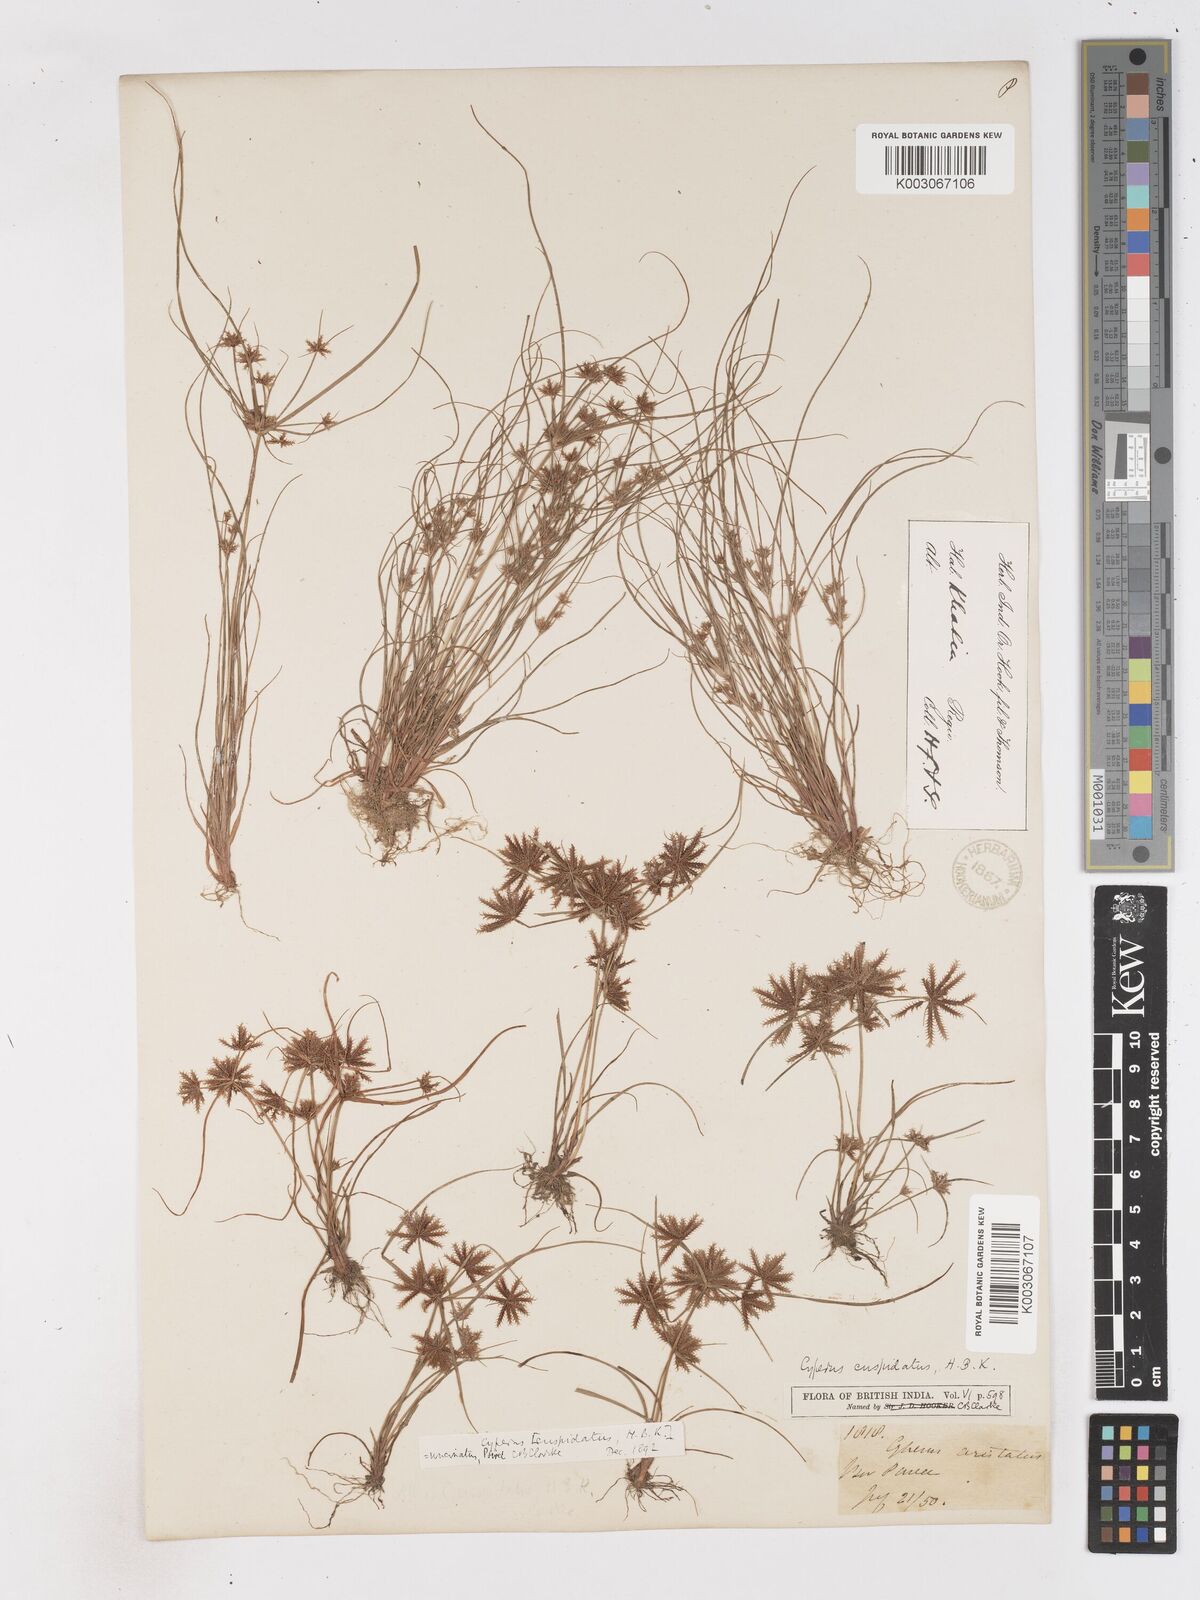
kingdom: Plantae
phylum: Tracheophyta
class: Liliopsida
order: Poales
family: Cyperaceae
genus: Cyperus
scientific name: Cyperus cuspidatus
